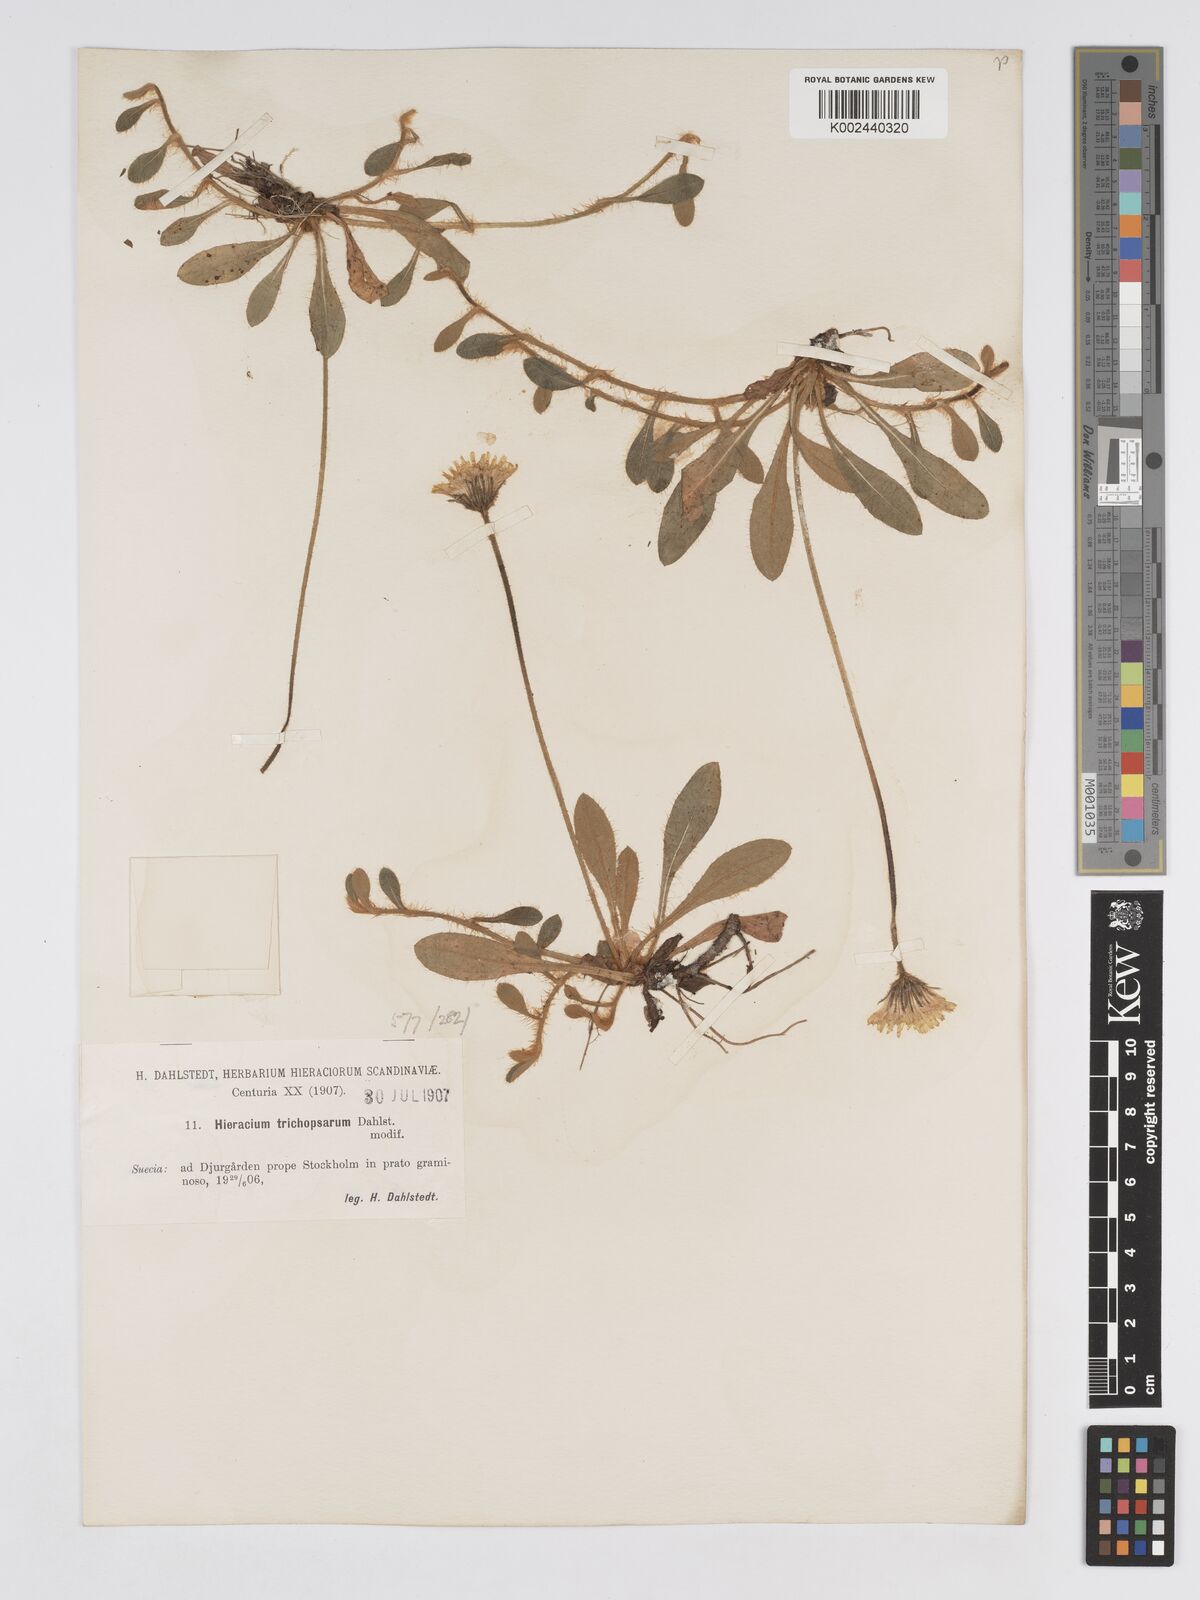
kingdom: Plantae
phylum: Tracheophyta
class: Magnoliopsida
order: Asterales
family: Asteraceae
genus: Pilosella
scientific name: Pilosella officinarum
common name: Mouse-ear hawkweed
